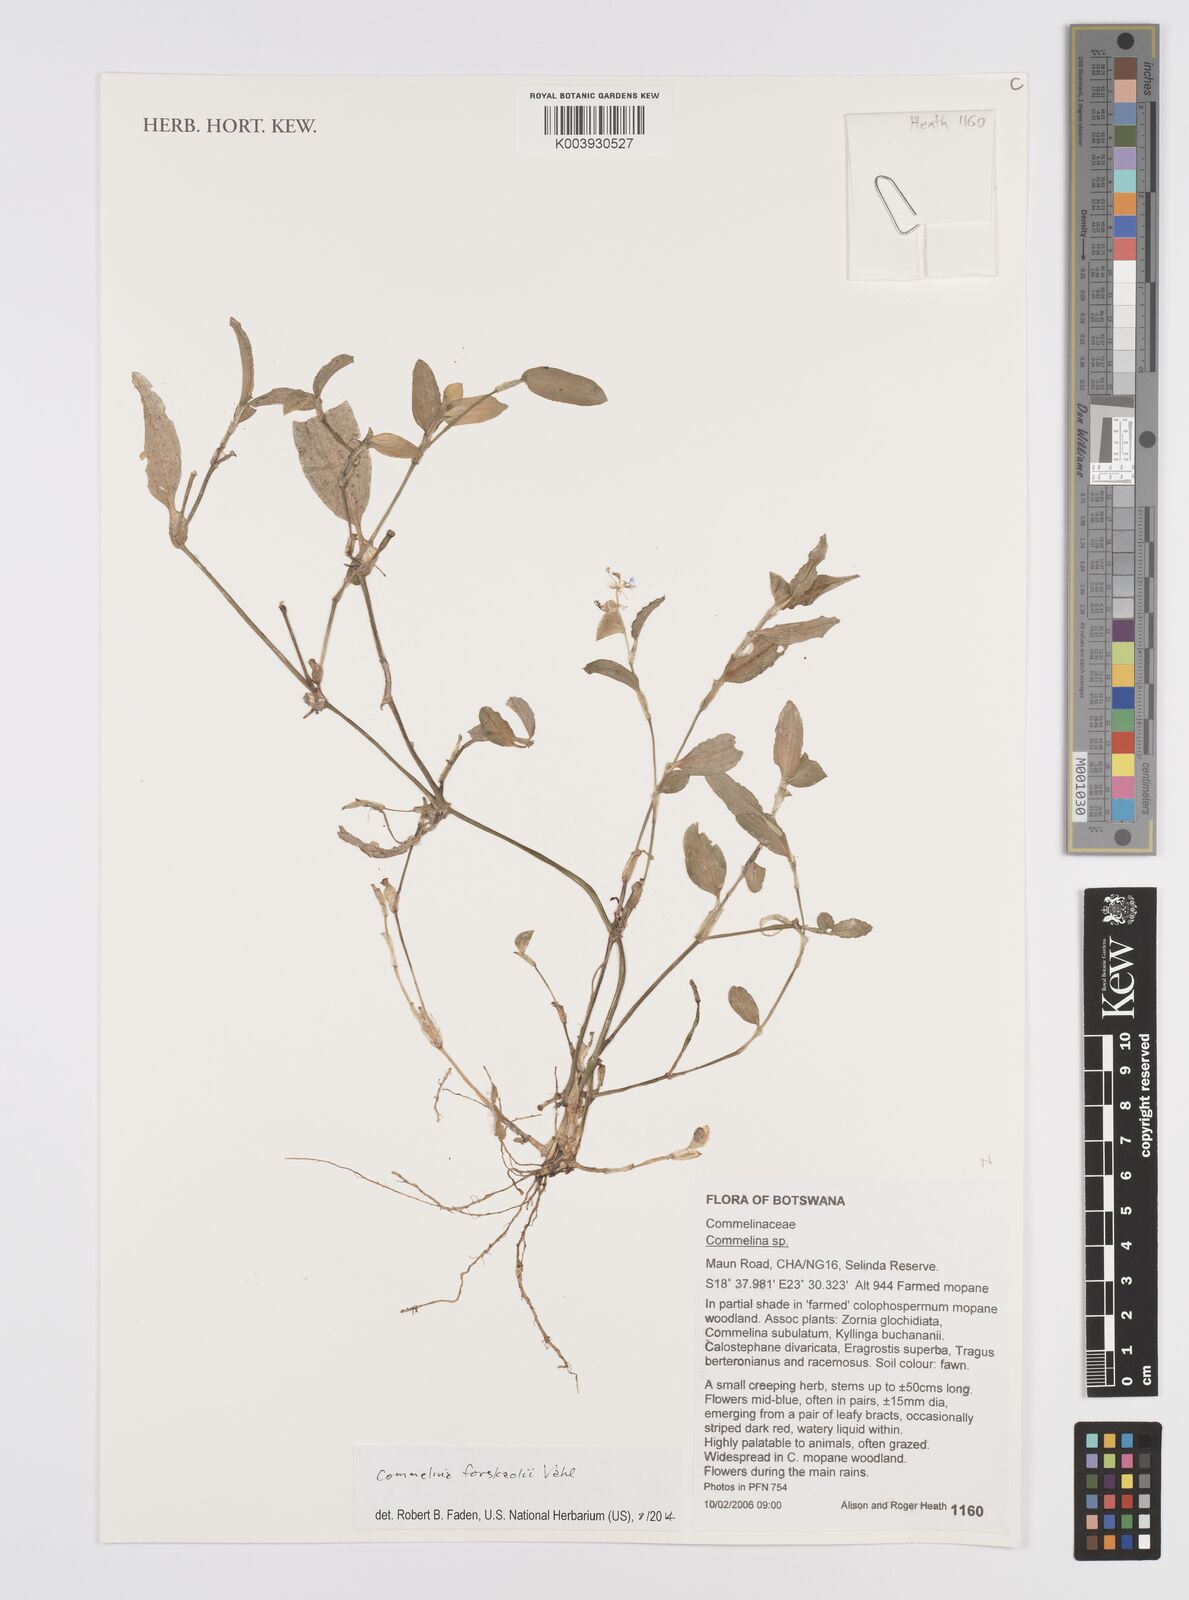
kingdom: Plantae
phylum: Tracheophyta
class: Liliopsida
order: Commelinales
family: Commelinaceae
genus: Commelina
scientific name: Commelina forskaolii
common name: Rat's ear
